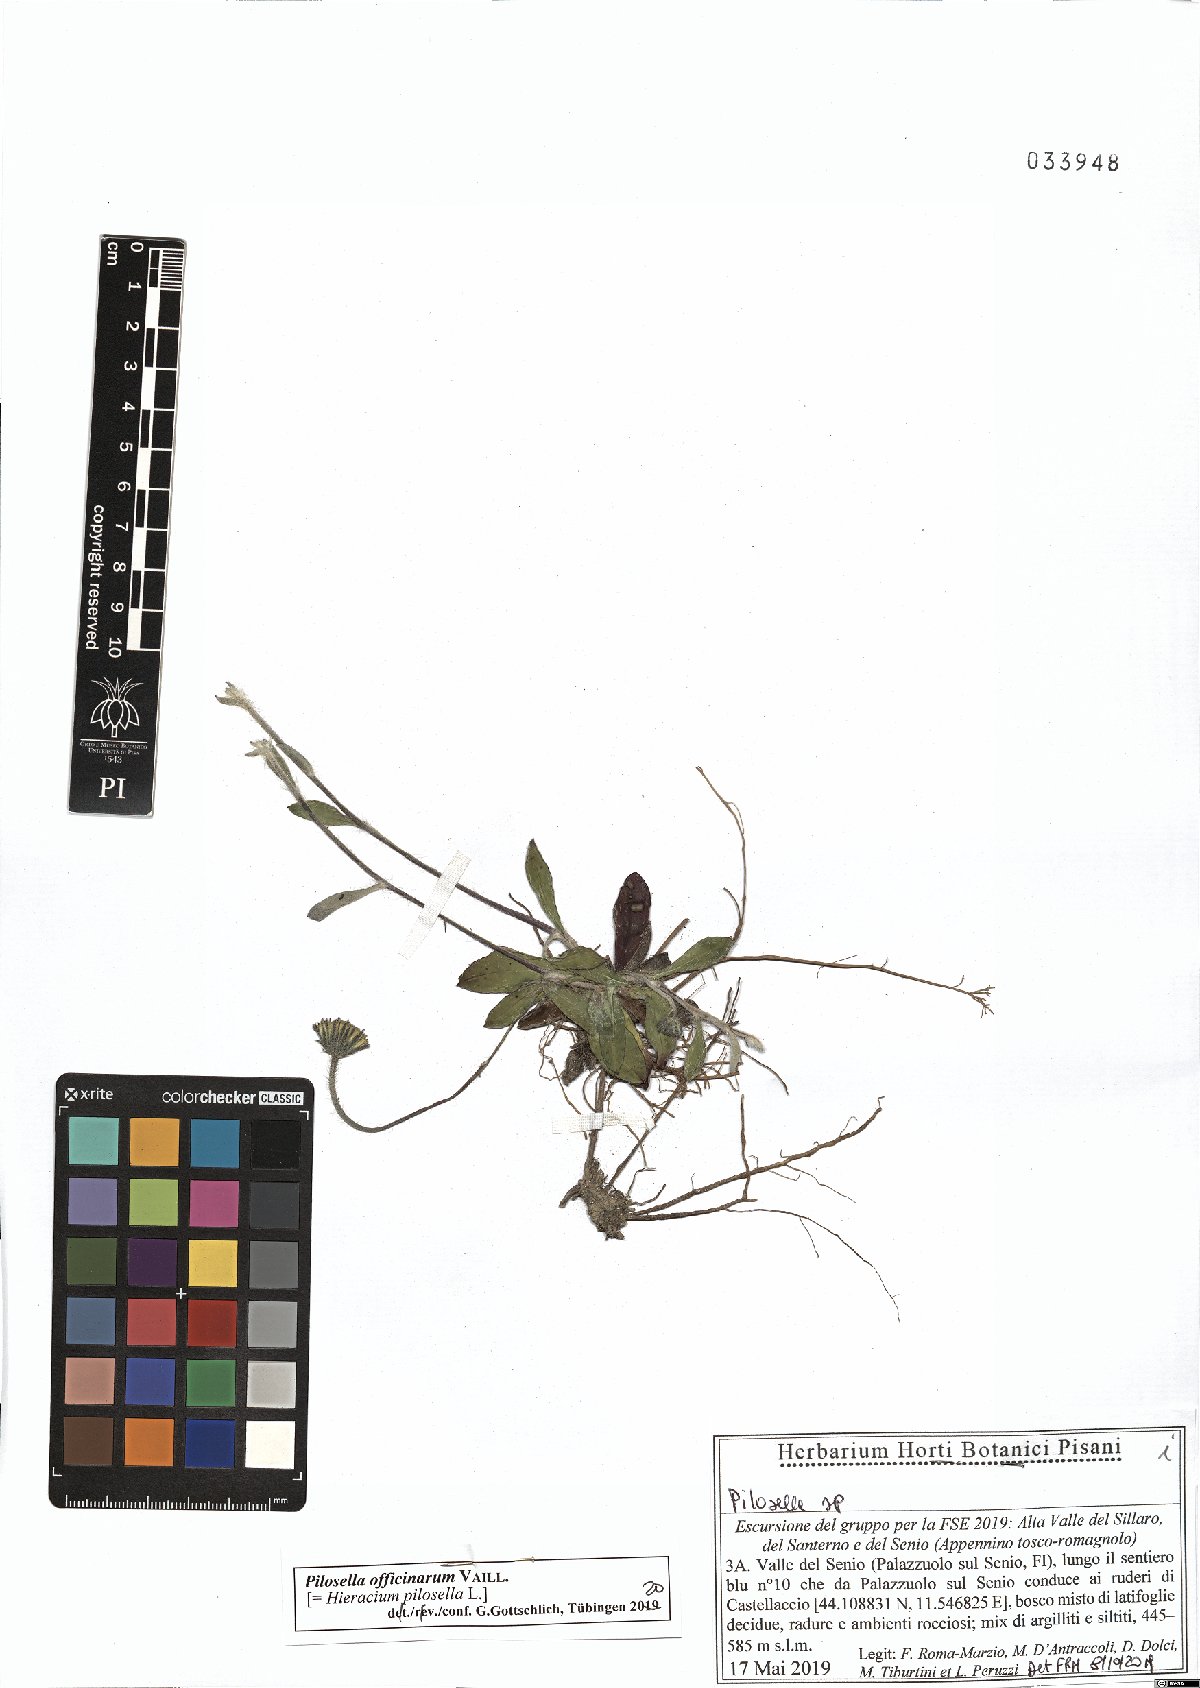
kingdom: Plantae
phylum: Tracheophyta
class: Magnoliopsida
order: Asterales
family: Asteraceae
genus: Pilosella
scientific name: Pilosella officinarum
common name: Mouse-ear hawkweed
